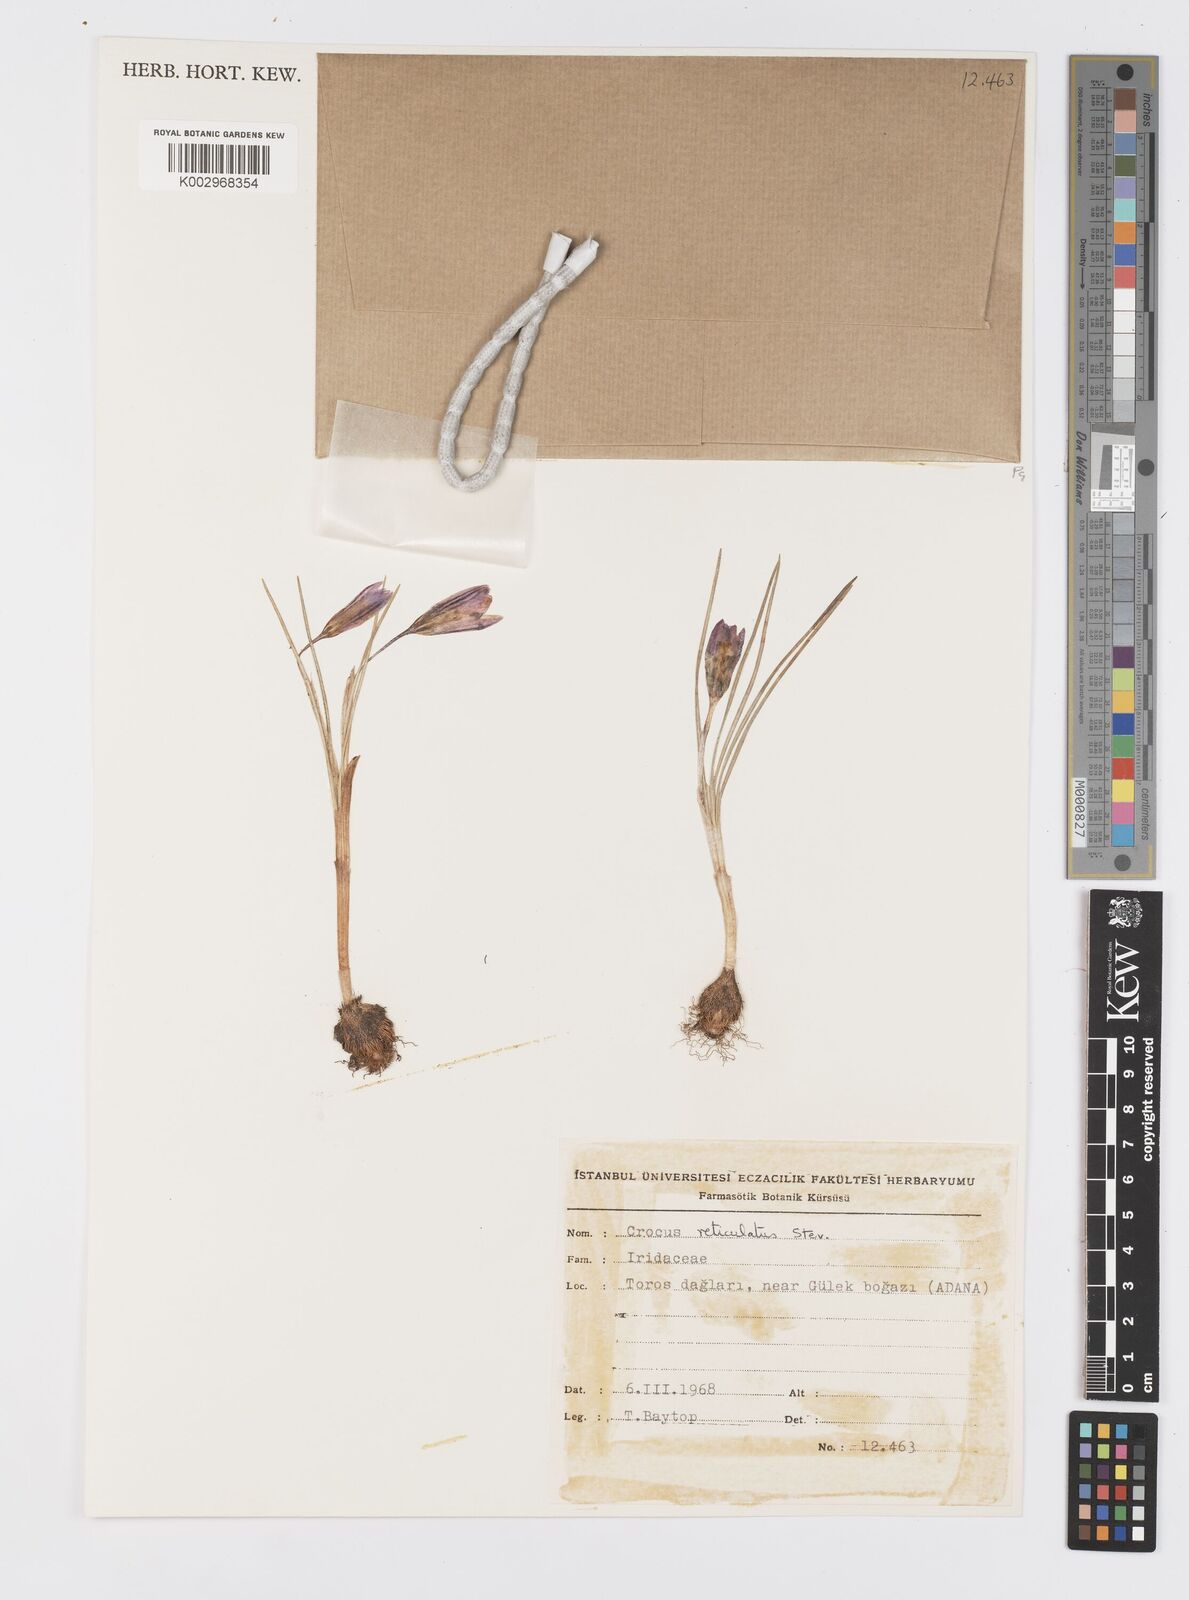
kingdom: Plantae
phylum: Tracheophyta
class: Liliopsida
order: Asparagales
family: Iridaceae
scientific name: Iridaceae
